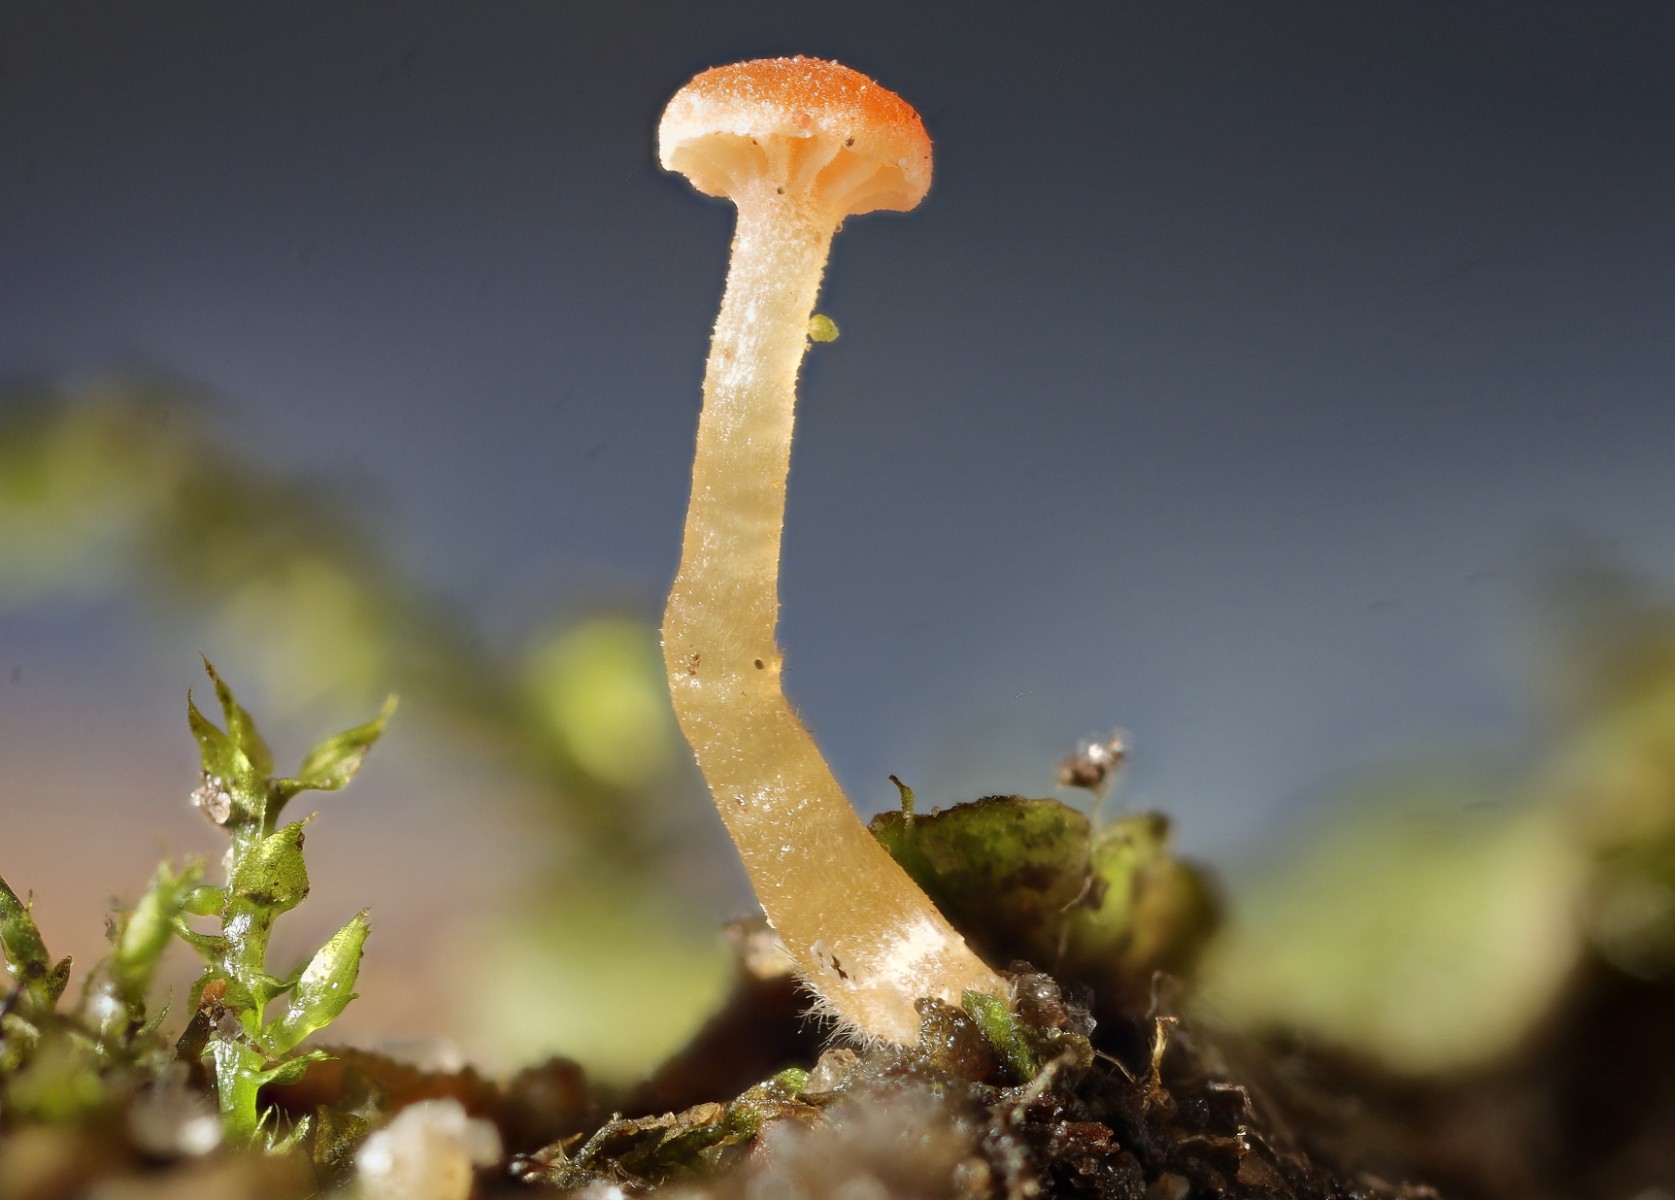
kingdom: Fungi
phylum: Basidiomycota
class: Agaricomycetes
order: Hymenochaetales
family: Rickenellaceae
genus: Loreleia
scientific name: Loreleia
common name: mosnavlehat
